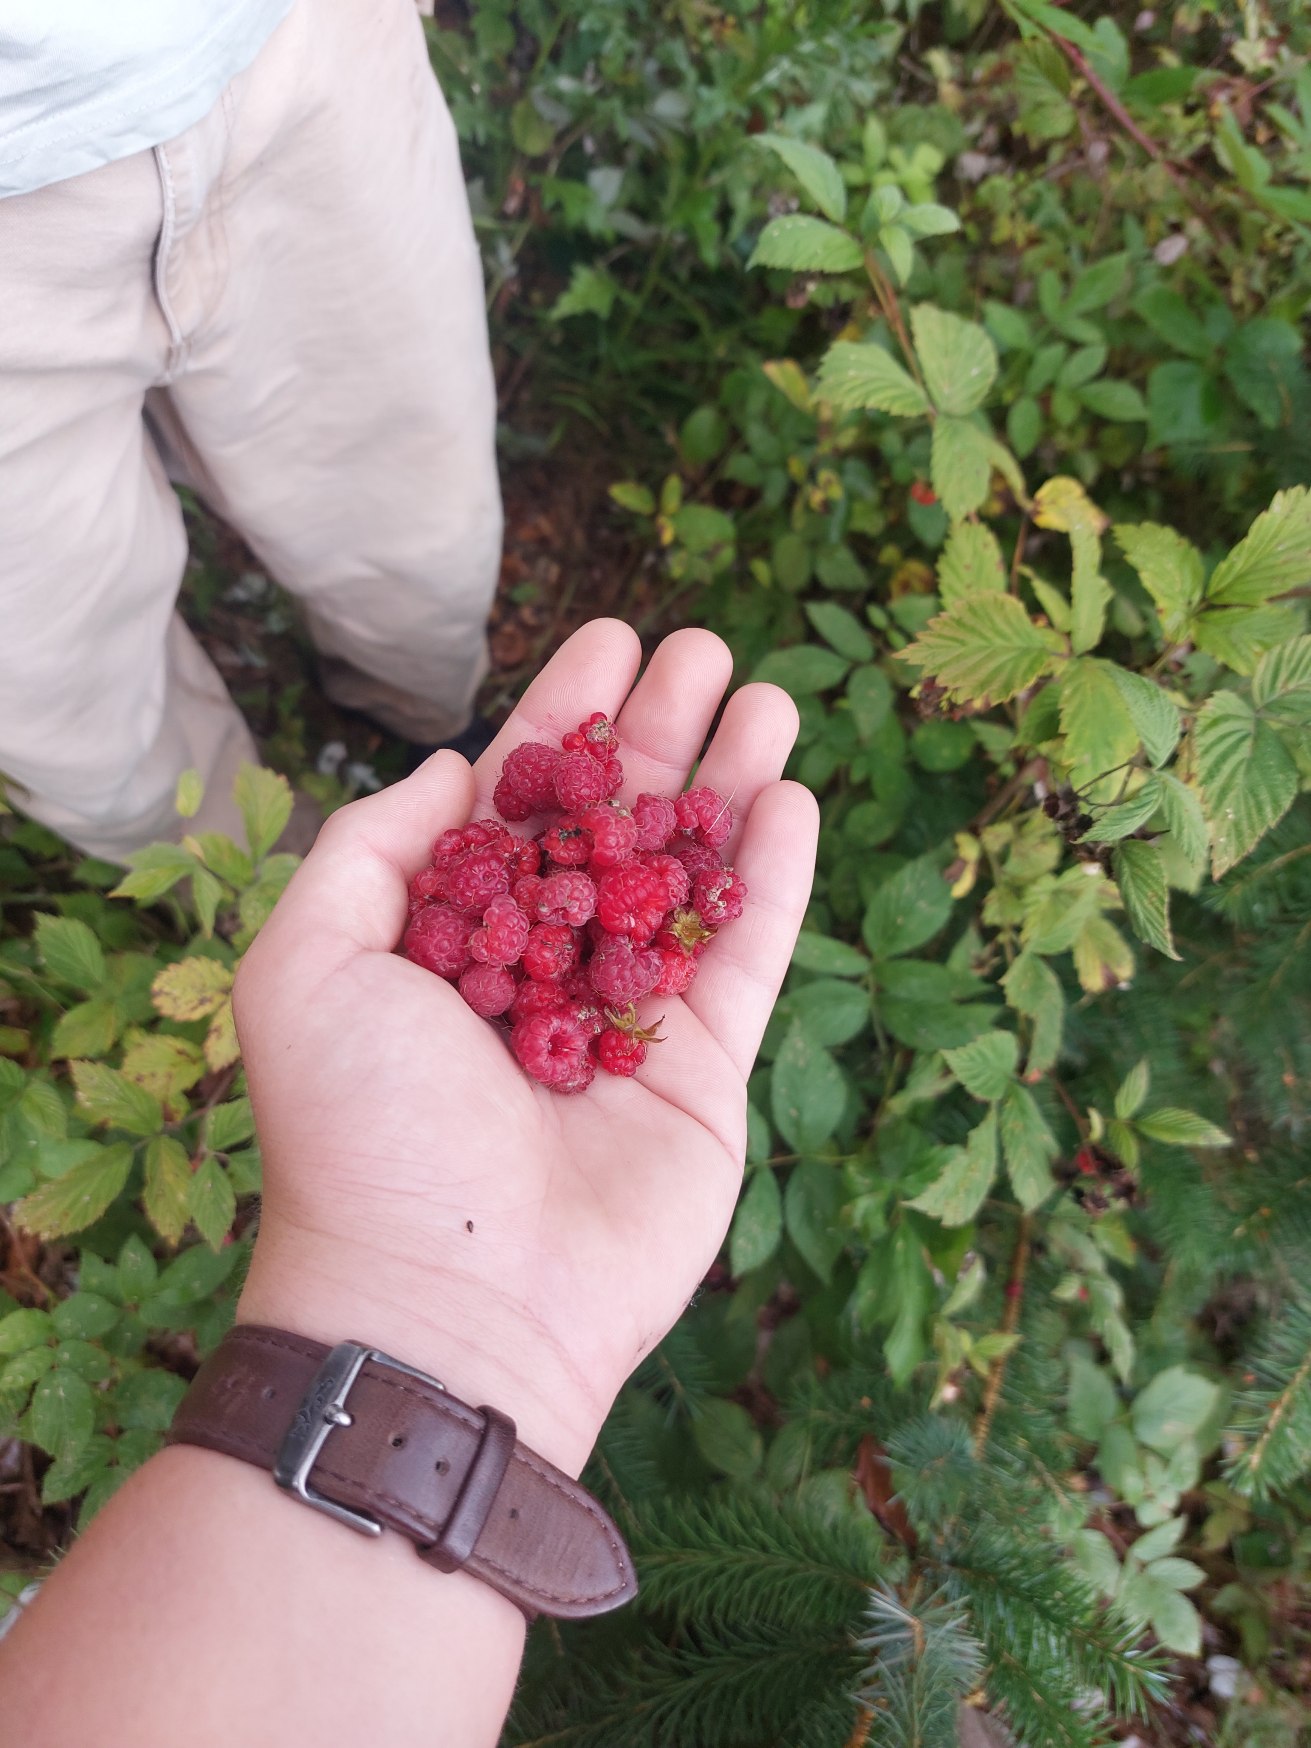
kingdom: Plantae
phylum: Tracheophyta
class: Magnoliopsida
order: Rosales
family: Rosaceae
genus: Rubus
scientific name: Rubus idaeus
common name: Hindbær
